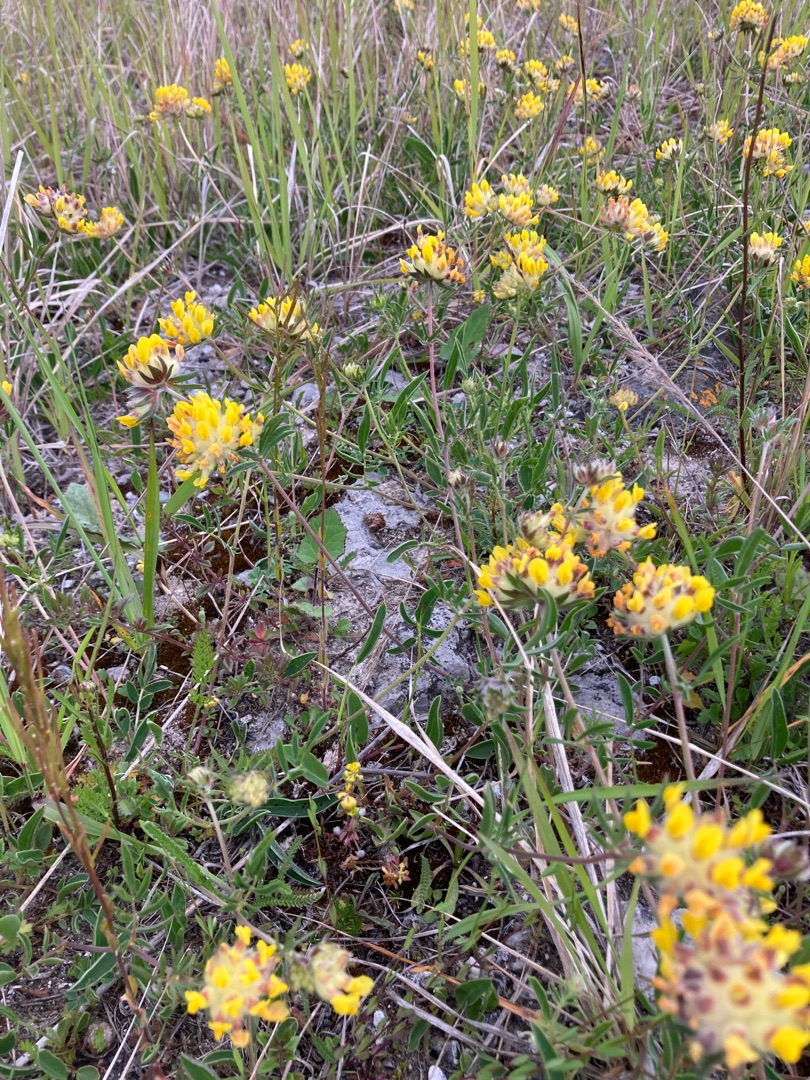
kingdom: Plantae
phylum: Tracheophyta
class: Magnoliopsida
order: Fabales
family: Fabaceae
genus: Anthyllis
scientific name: Anthyllis vulneraria
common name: Rundbælg
